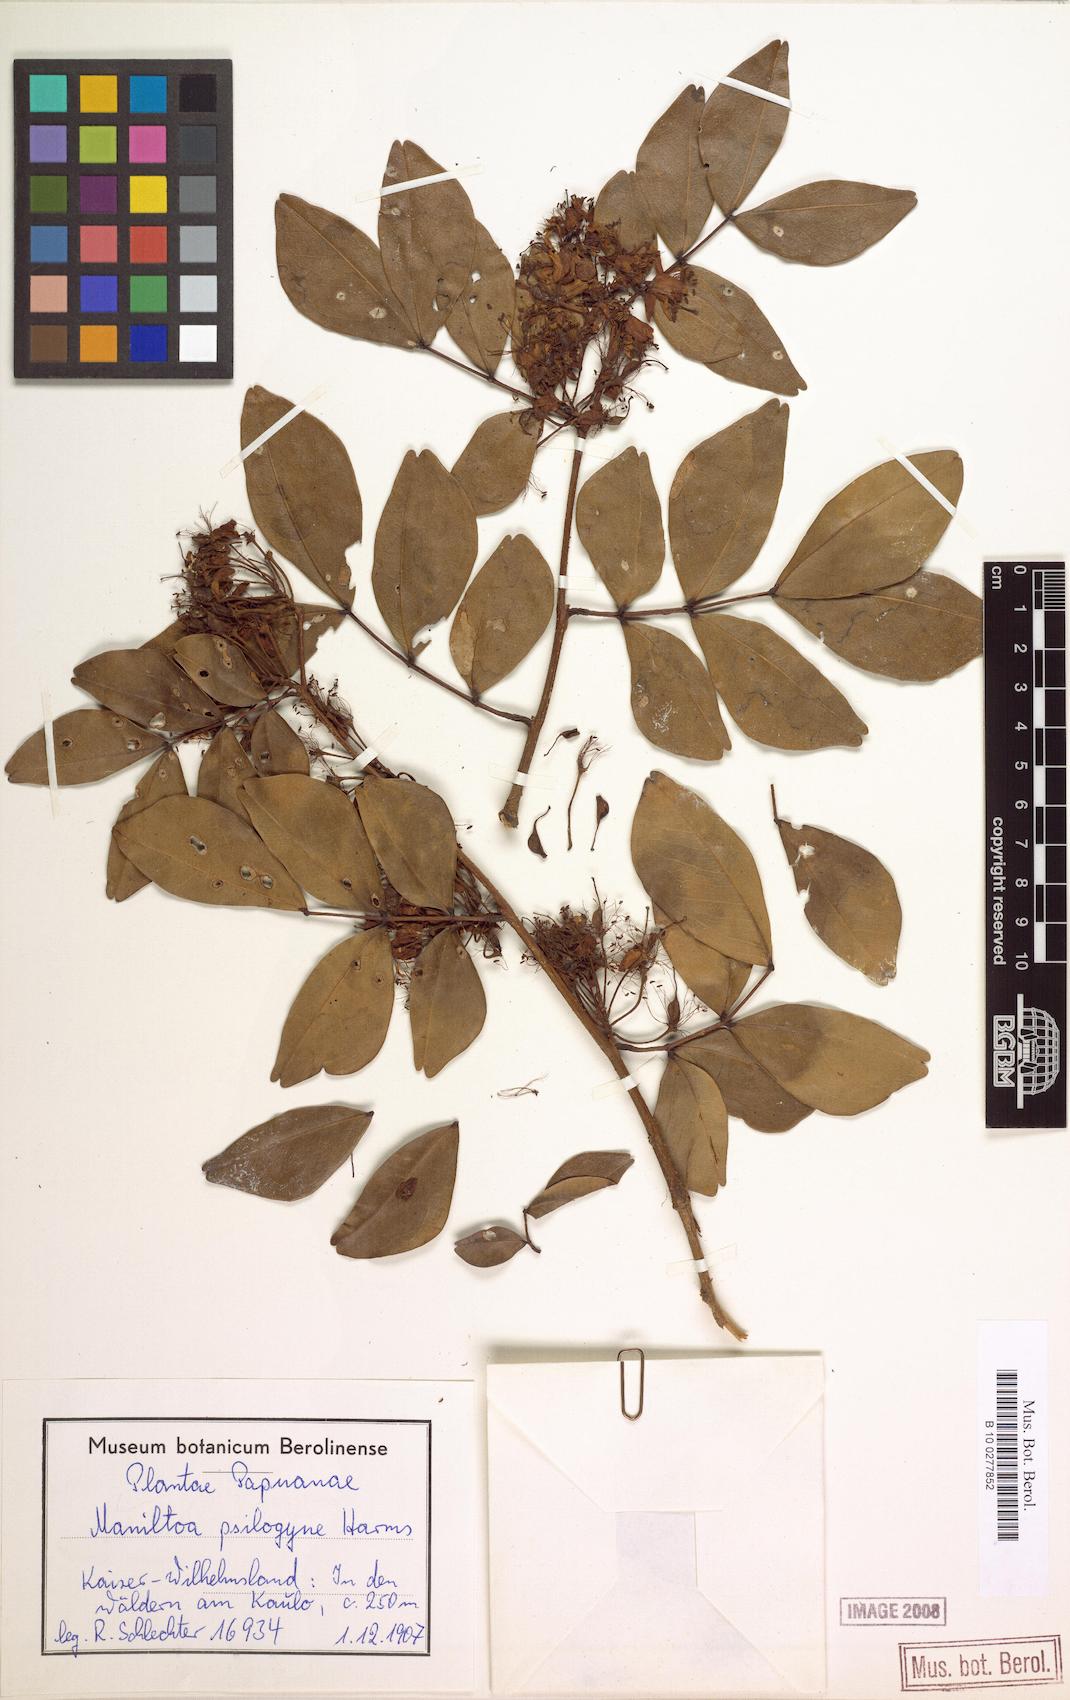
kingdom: Plantae
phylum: Tracheophyta
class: Magnoliopsida
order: Fabales
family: Fabaceae
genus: Cynometra
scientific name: Cynometra psilogyne
